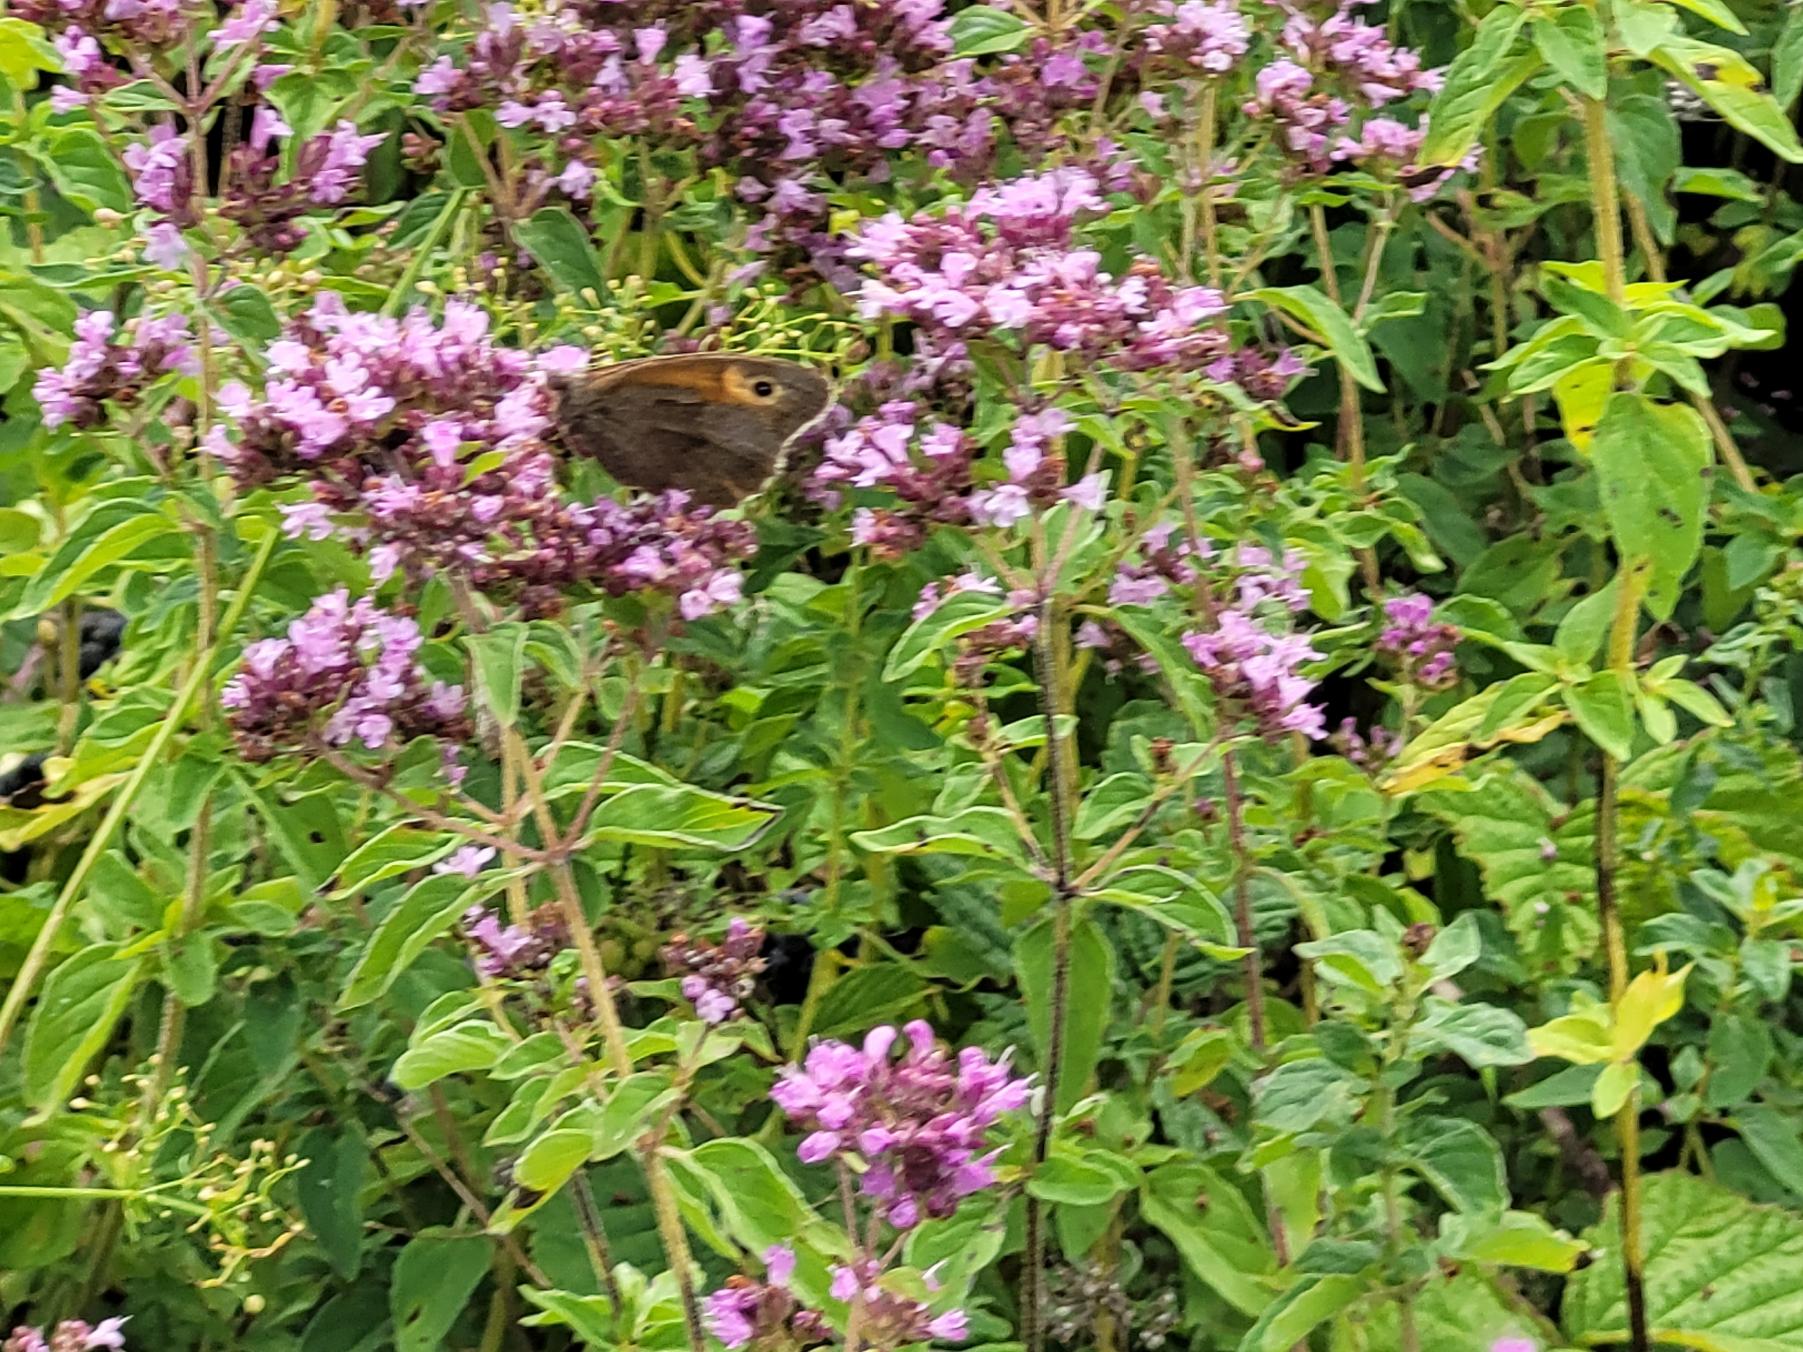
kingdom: Animalia
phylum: Arthropoda
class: Insecta
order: Lepidoptera
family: Nymphalidae
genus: Maniola
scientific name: Maniola jurtina
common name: Græsrandøje
